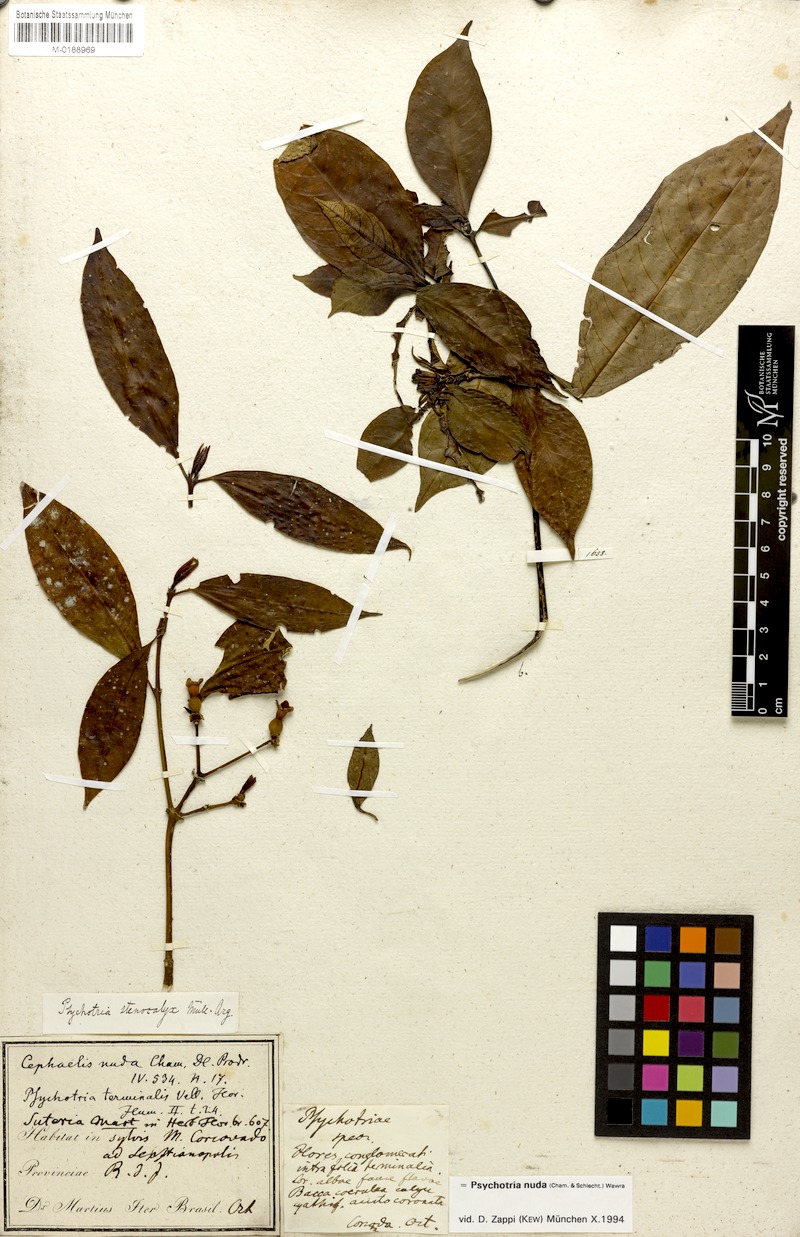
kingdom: Plantae
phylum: Tracheophyta
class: Magnoliopsida
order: Gentianales
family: Rubiaceae
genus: Psychotria
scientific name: Psychotria nuda
